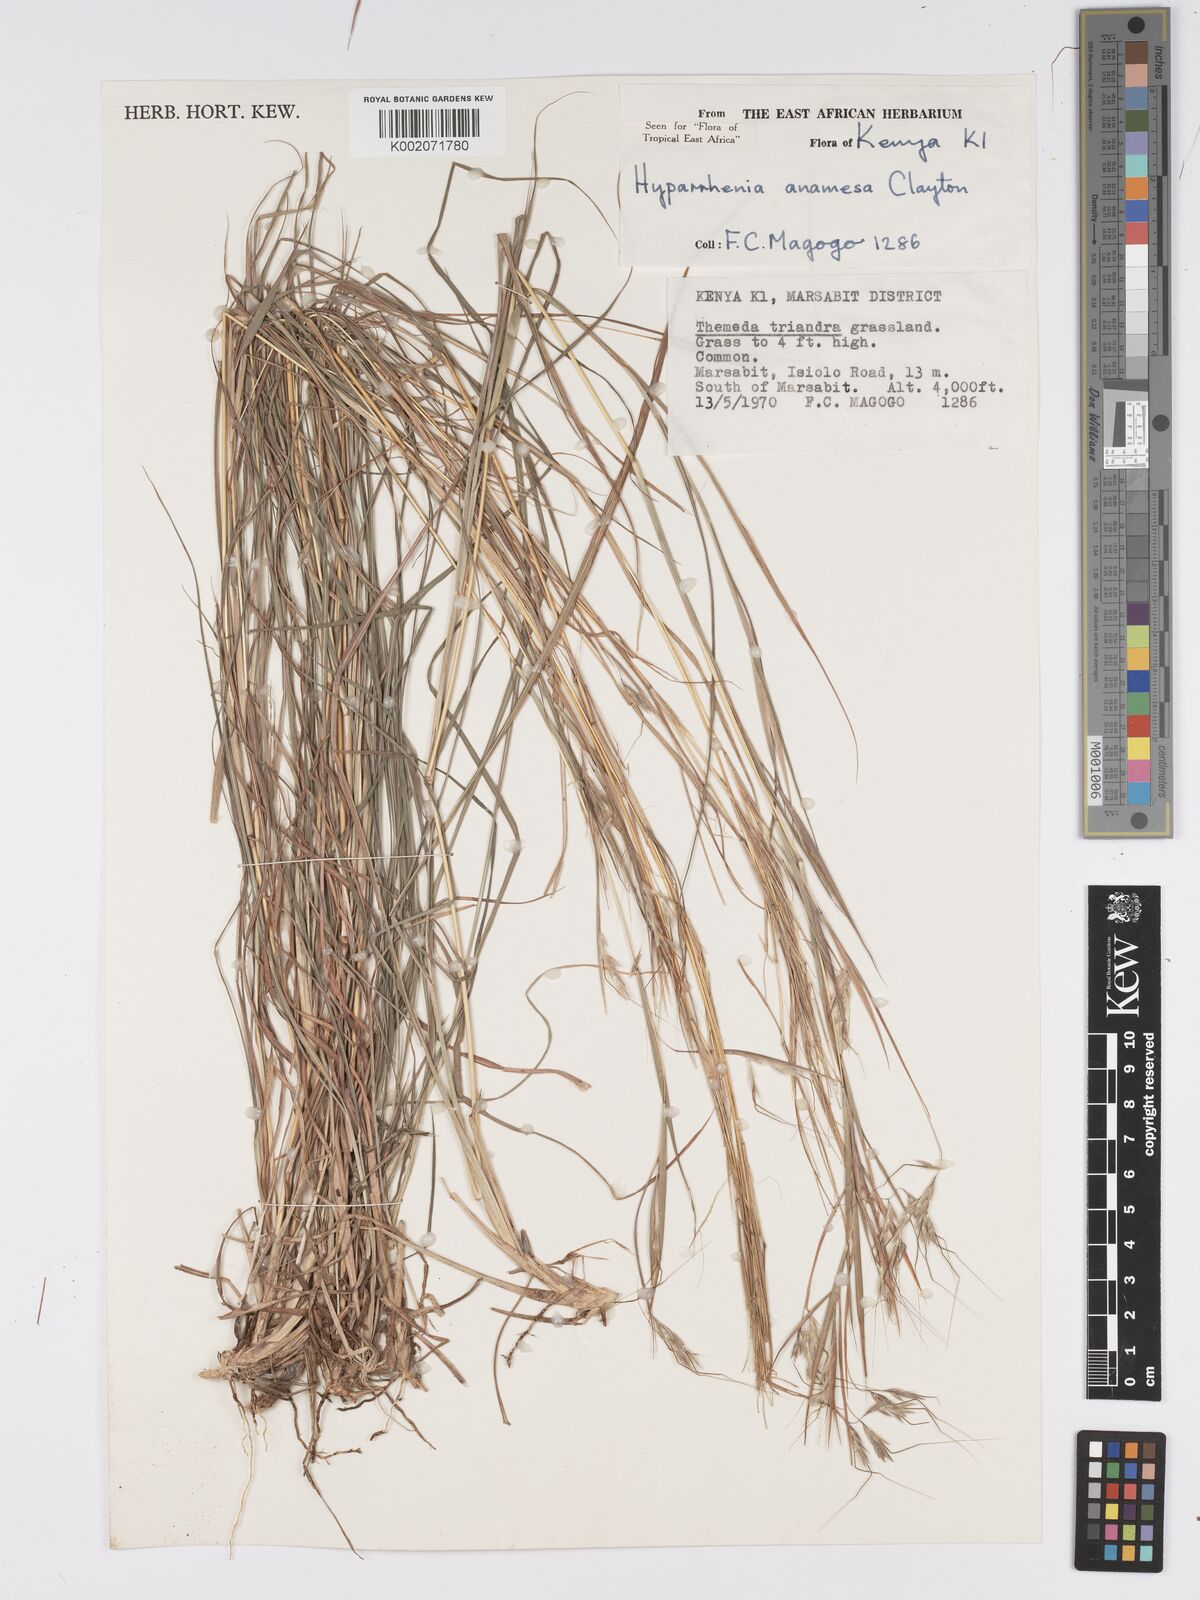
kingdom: Plantae
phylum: Tracheophyta
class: Liliopsida
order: Poales
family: Poaceae
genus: Hyparrhenia
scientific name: Hyparrhenia anamesa
